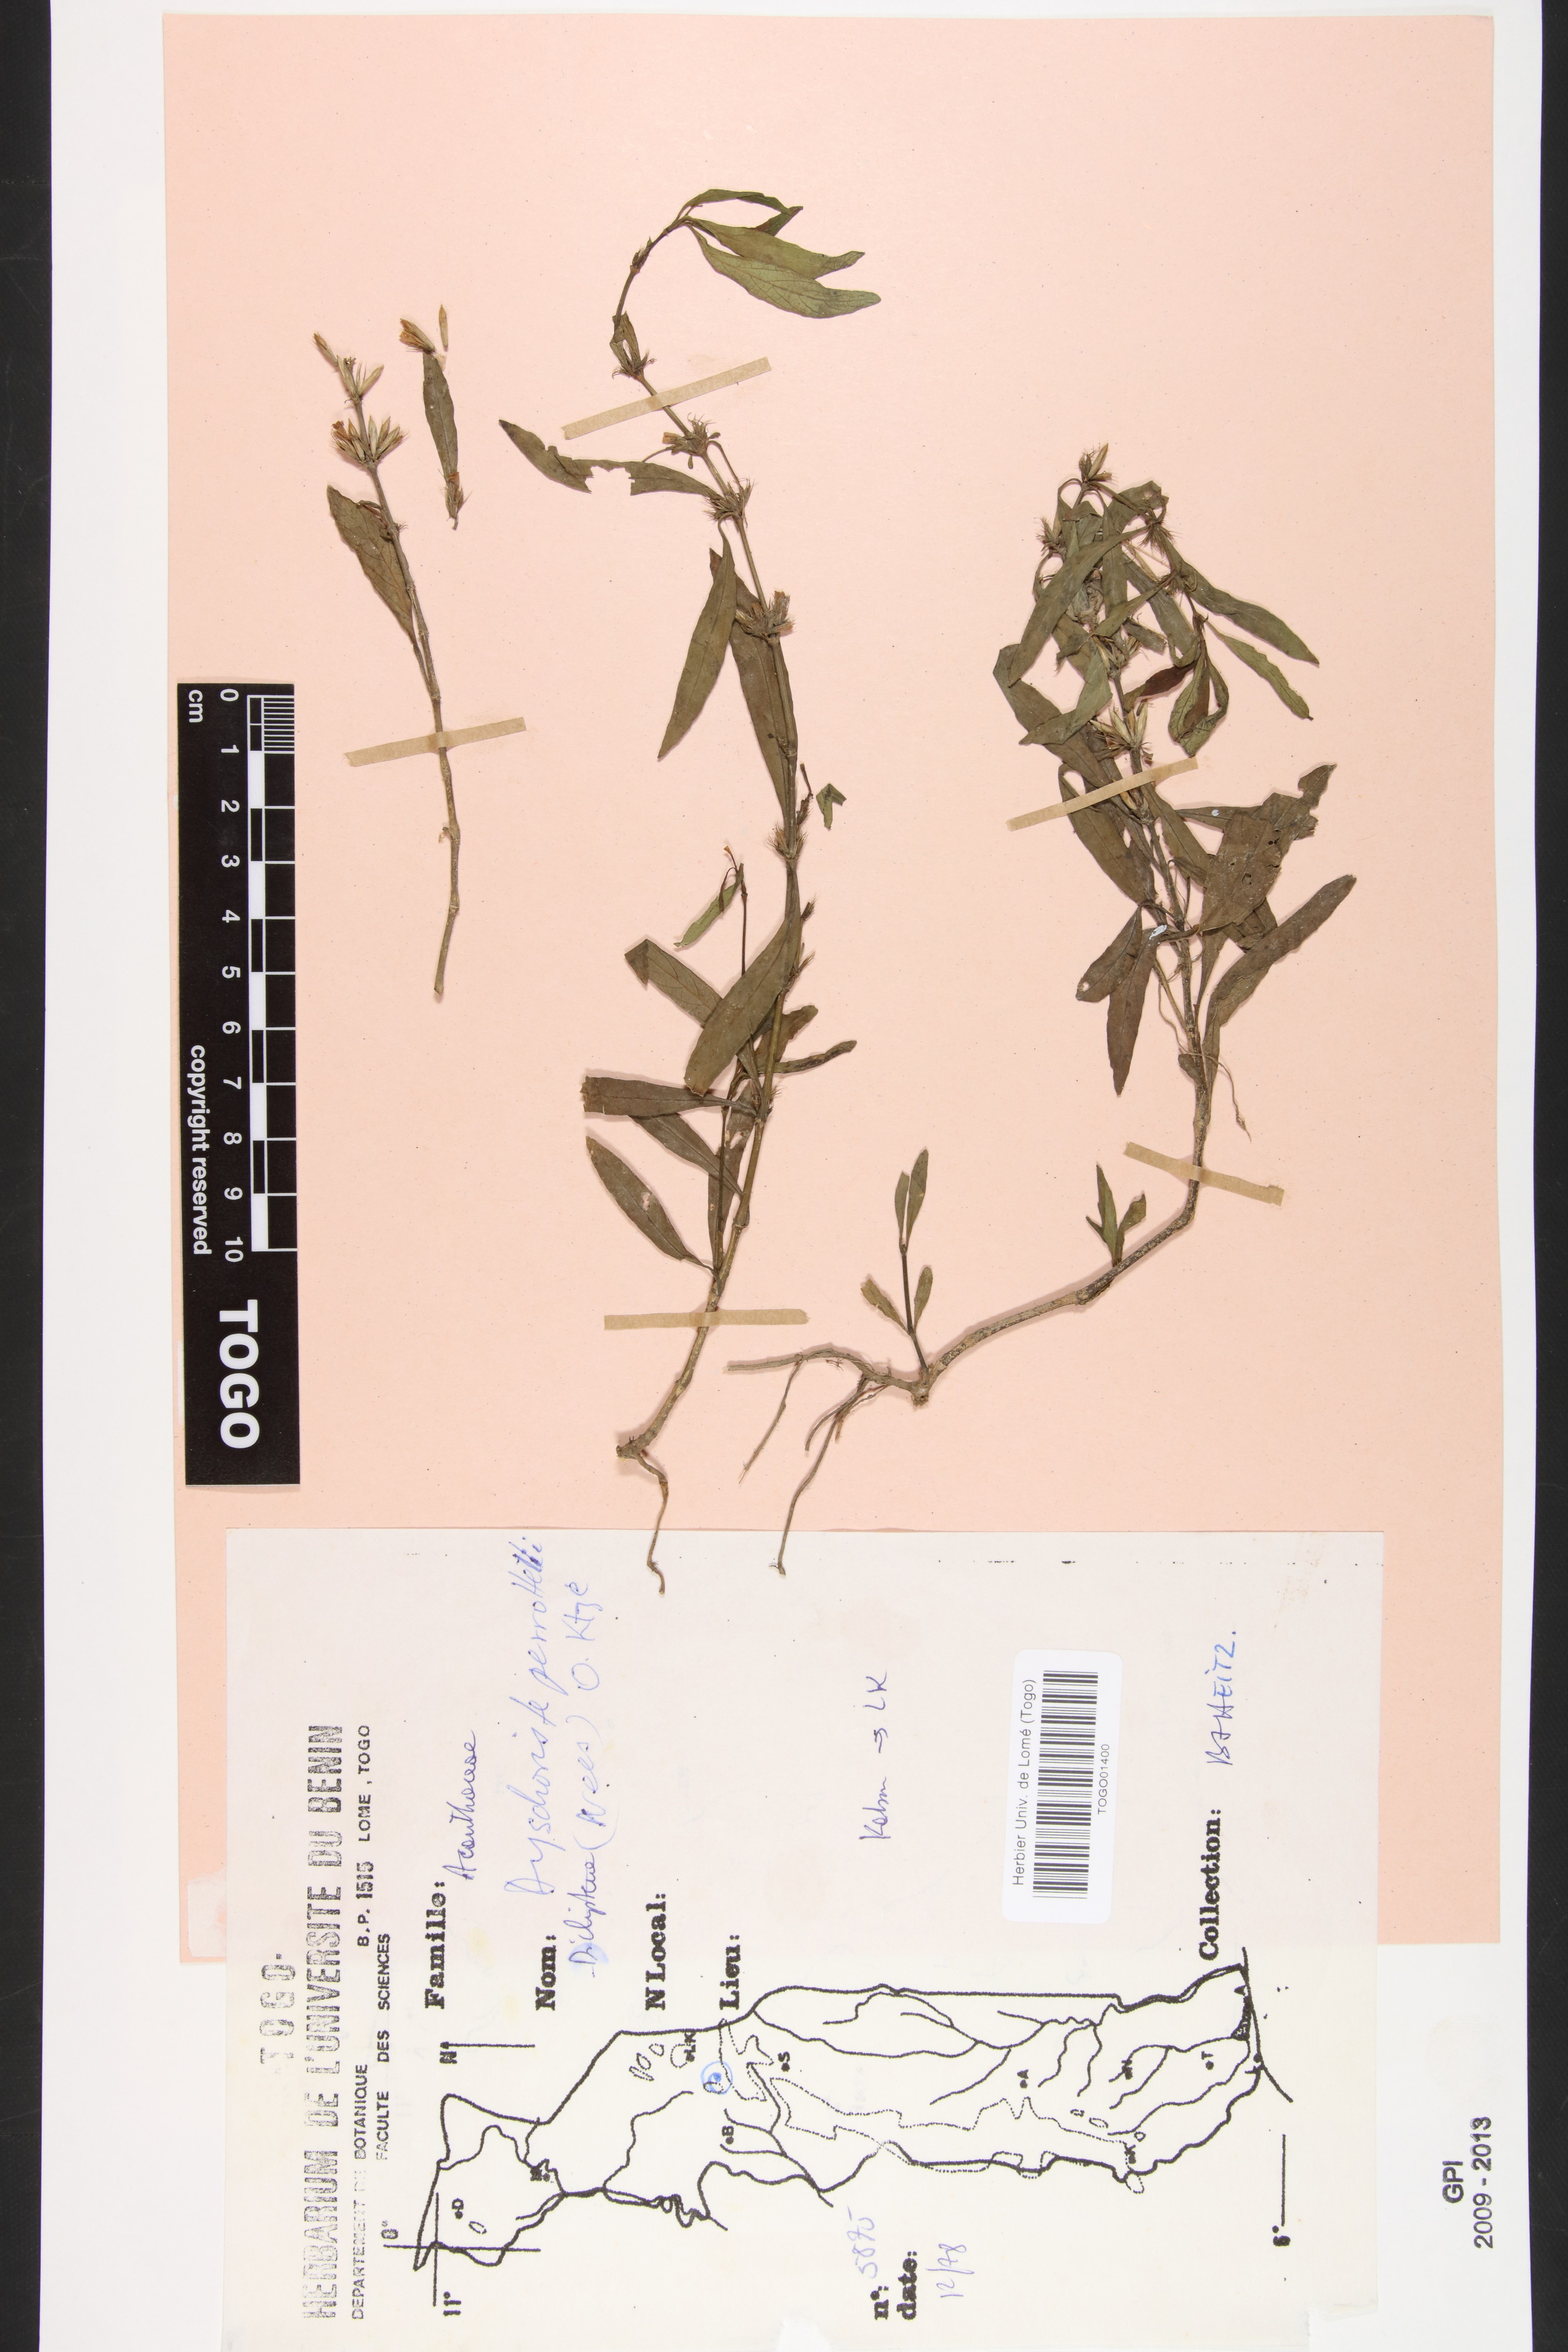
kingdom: Plantae
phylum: Tracheophyta
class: Magnoliopsida
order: Lamiales
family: Acanthaceae
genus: Dyschoriste
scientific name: Dyschoriste nagchana
